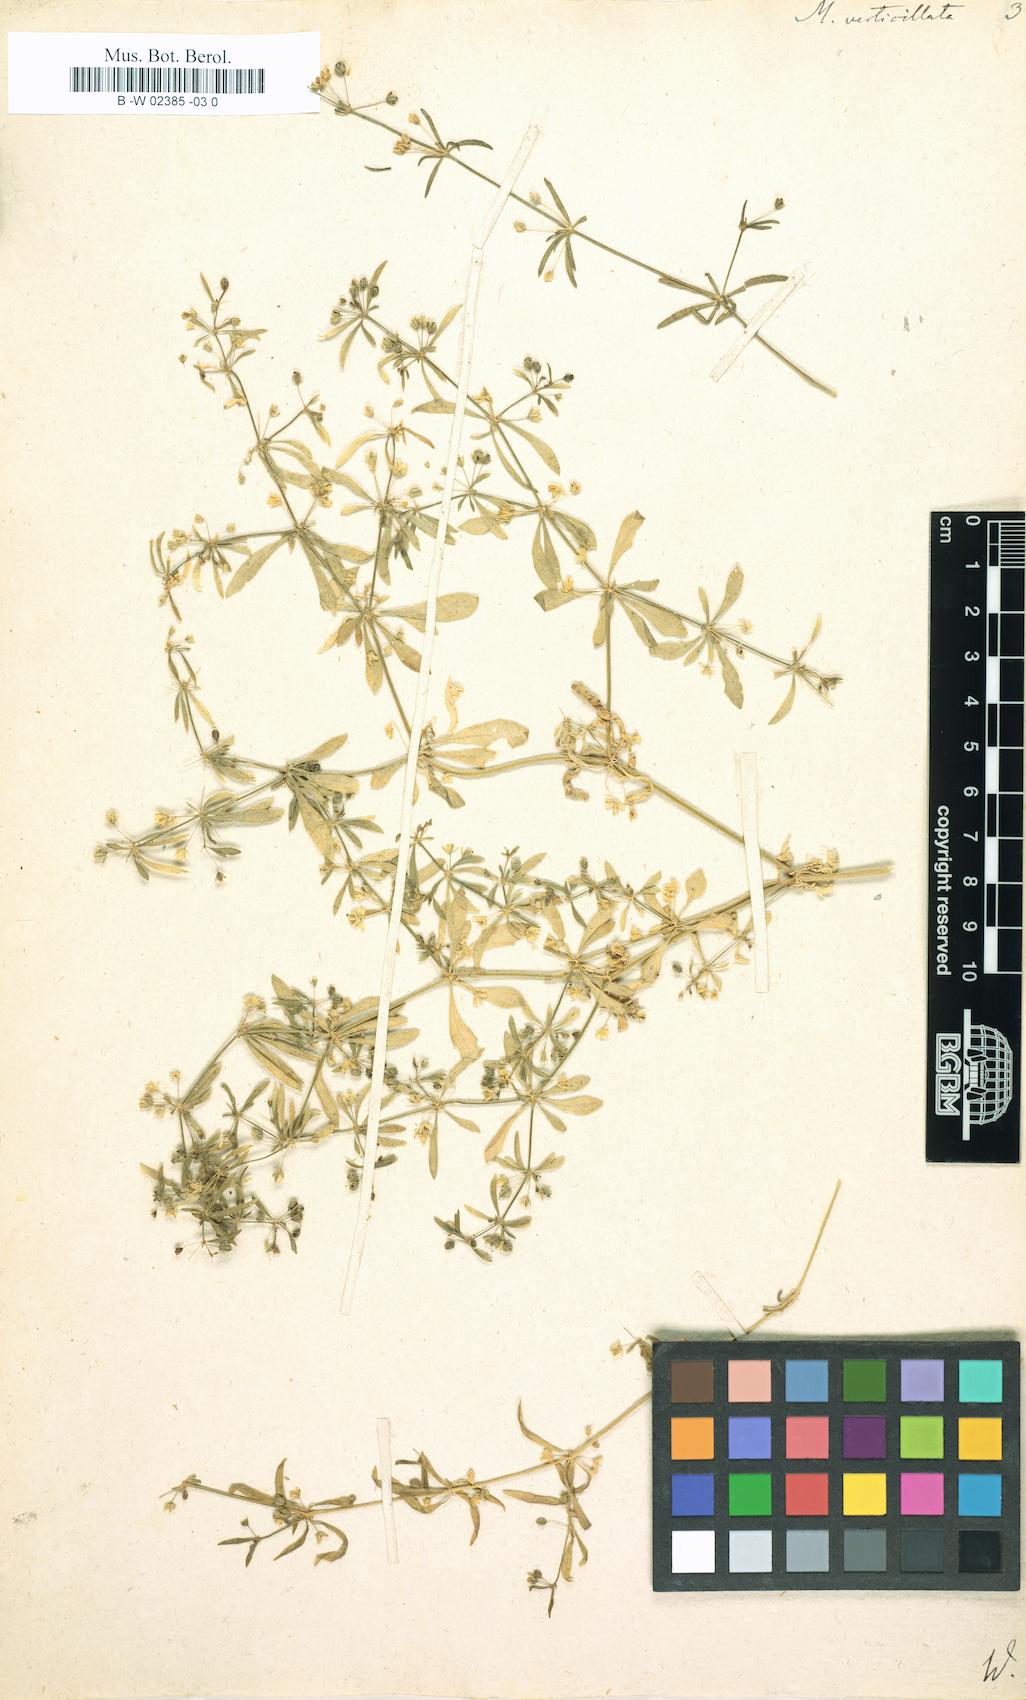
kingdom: Plantae
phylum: Tracheophyta
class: Magnoliopsida
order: Caryophyllales
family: Molluginaceae
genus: Mollugo
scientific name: Mollugo verticillata
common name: Green carpetweed
